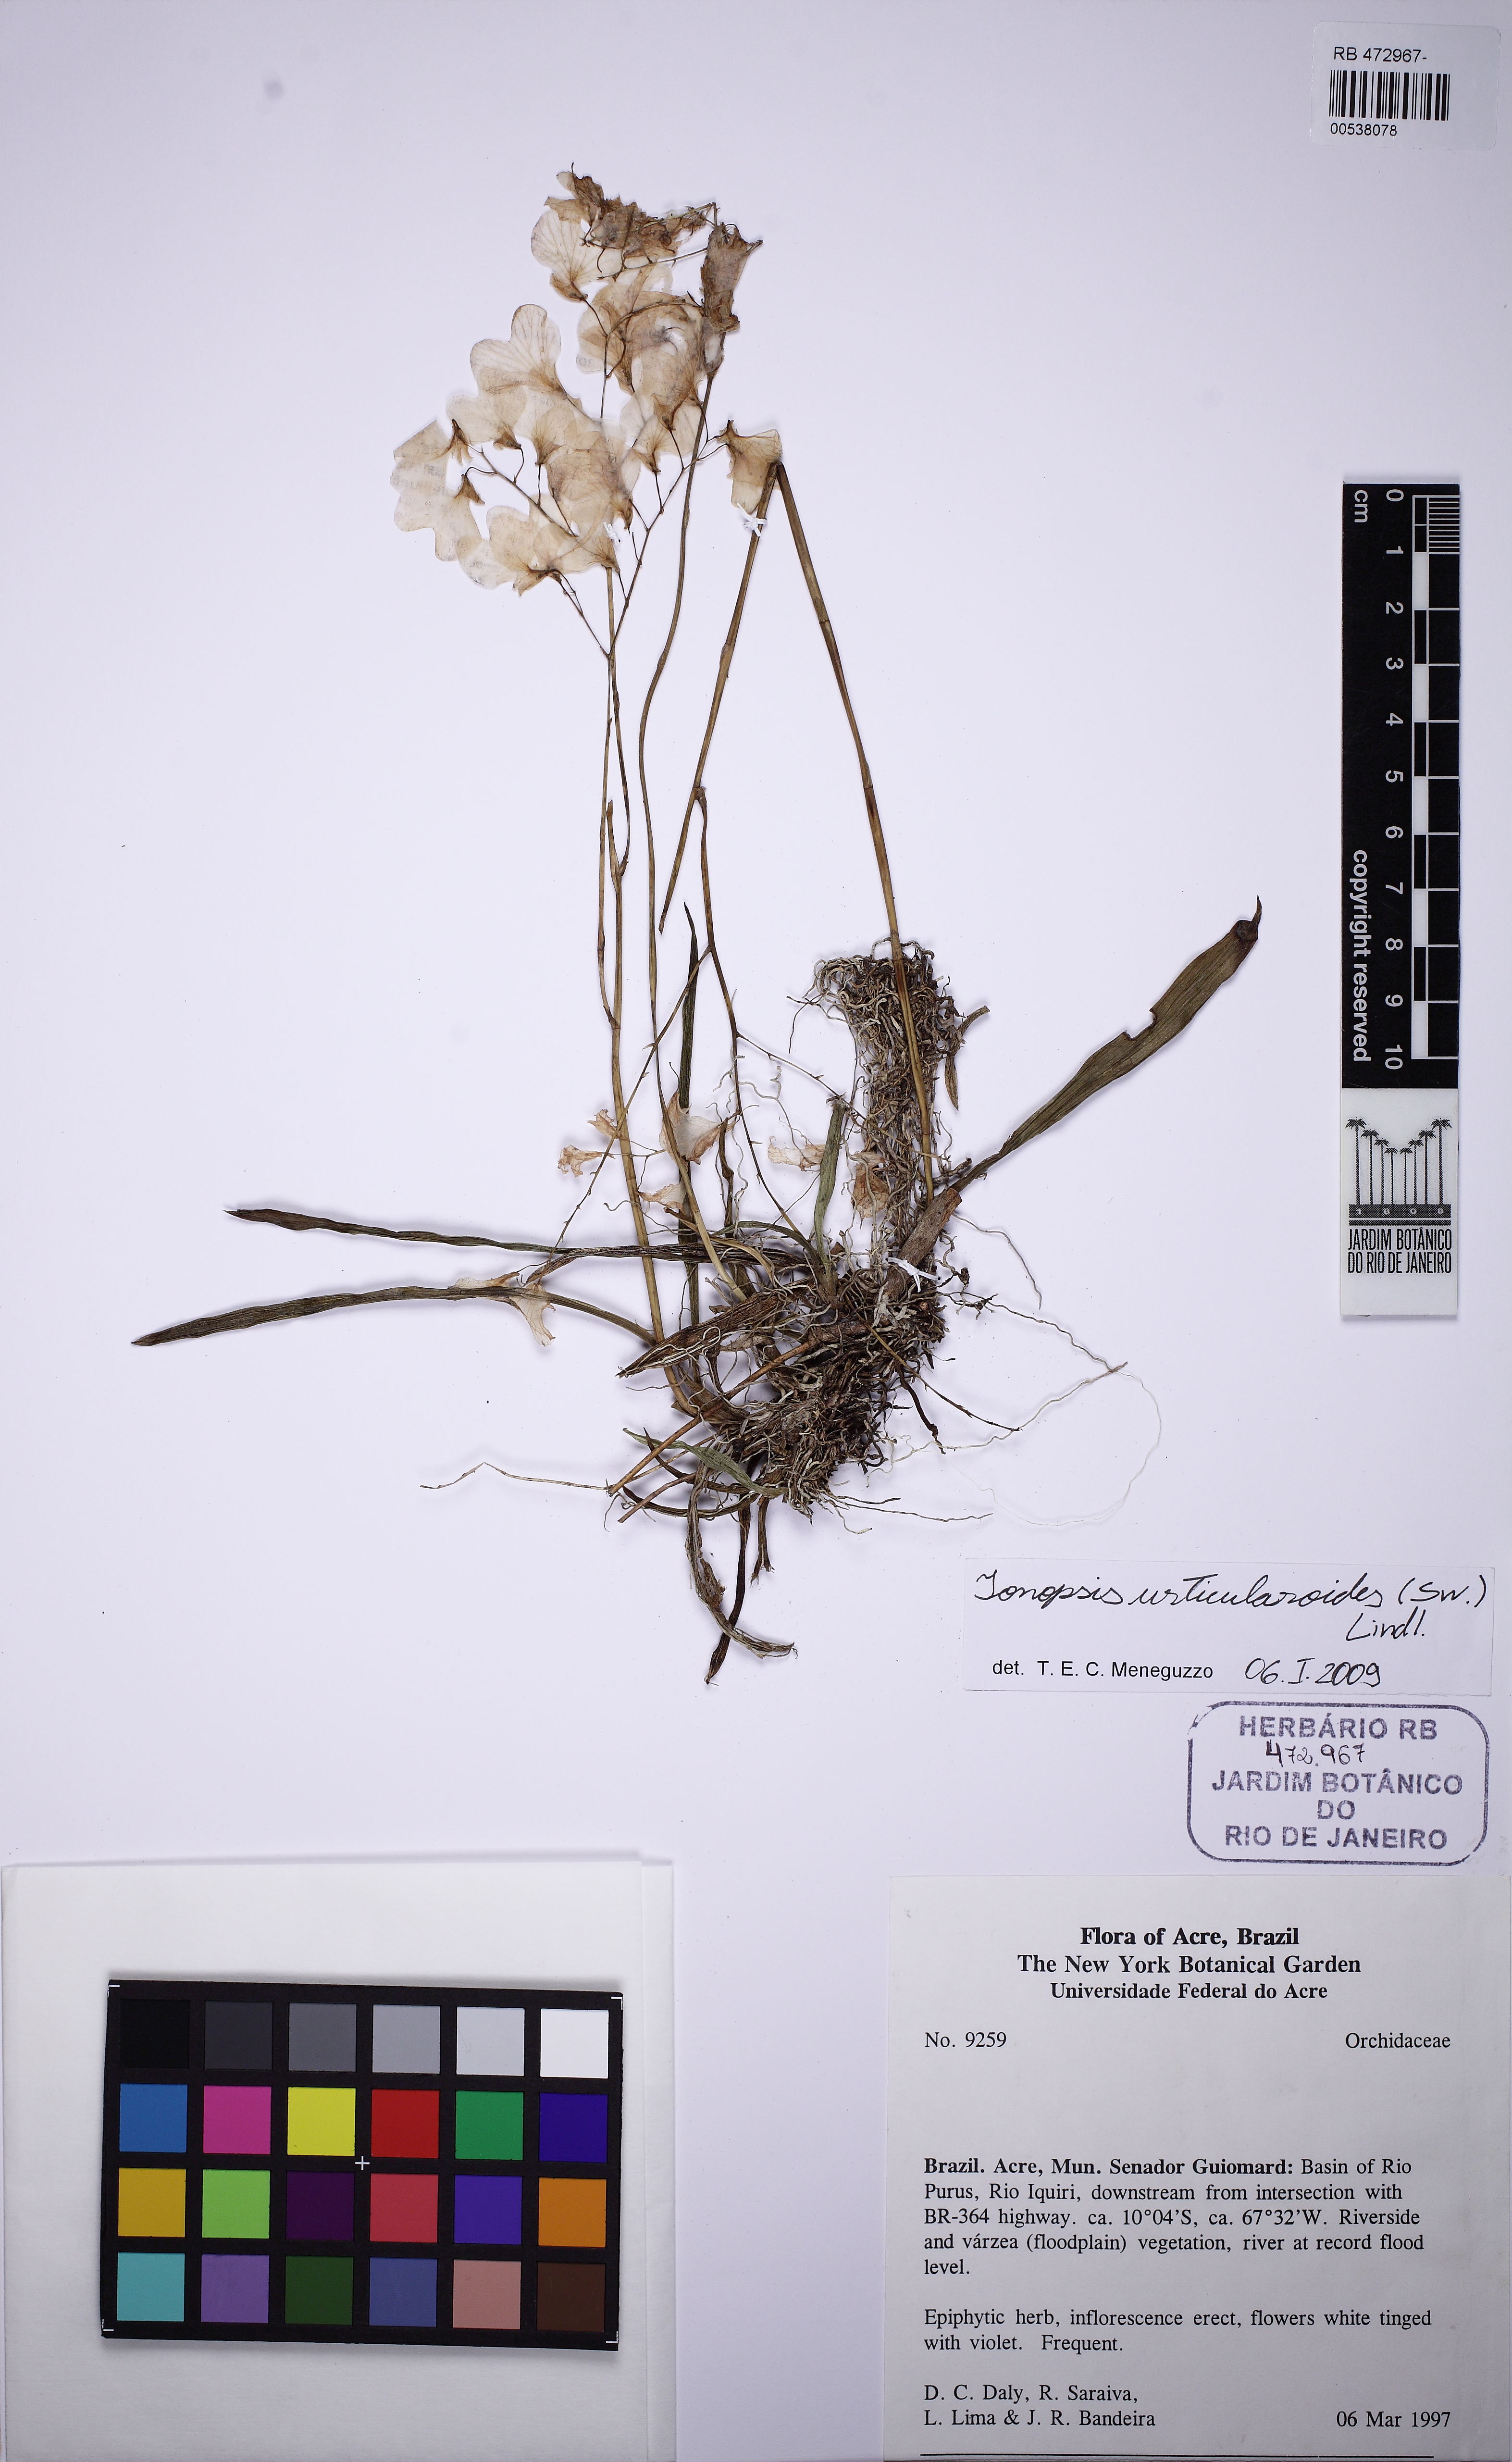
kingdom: Plantae
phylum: Tracheophyta
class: Liliopsida
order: Asparagales
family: Orchidaceae
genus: Ionopsis
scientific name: Ionopsis utricularioides
